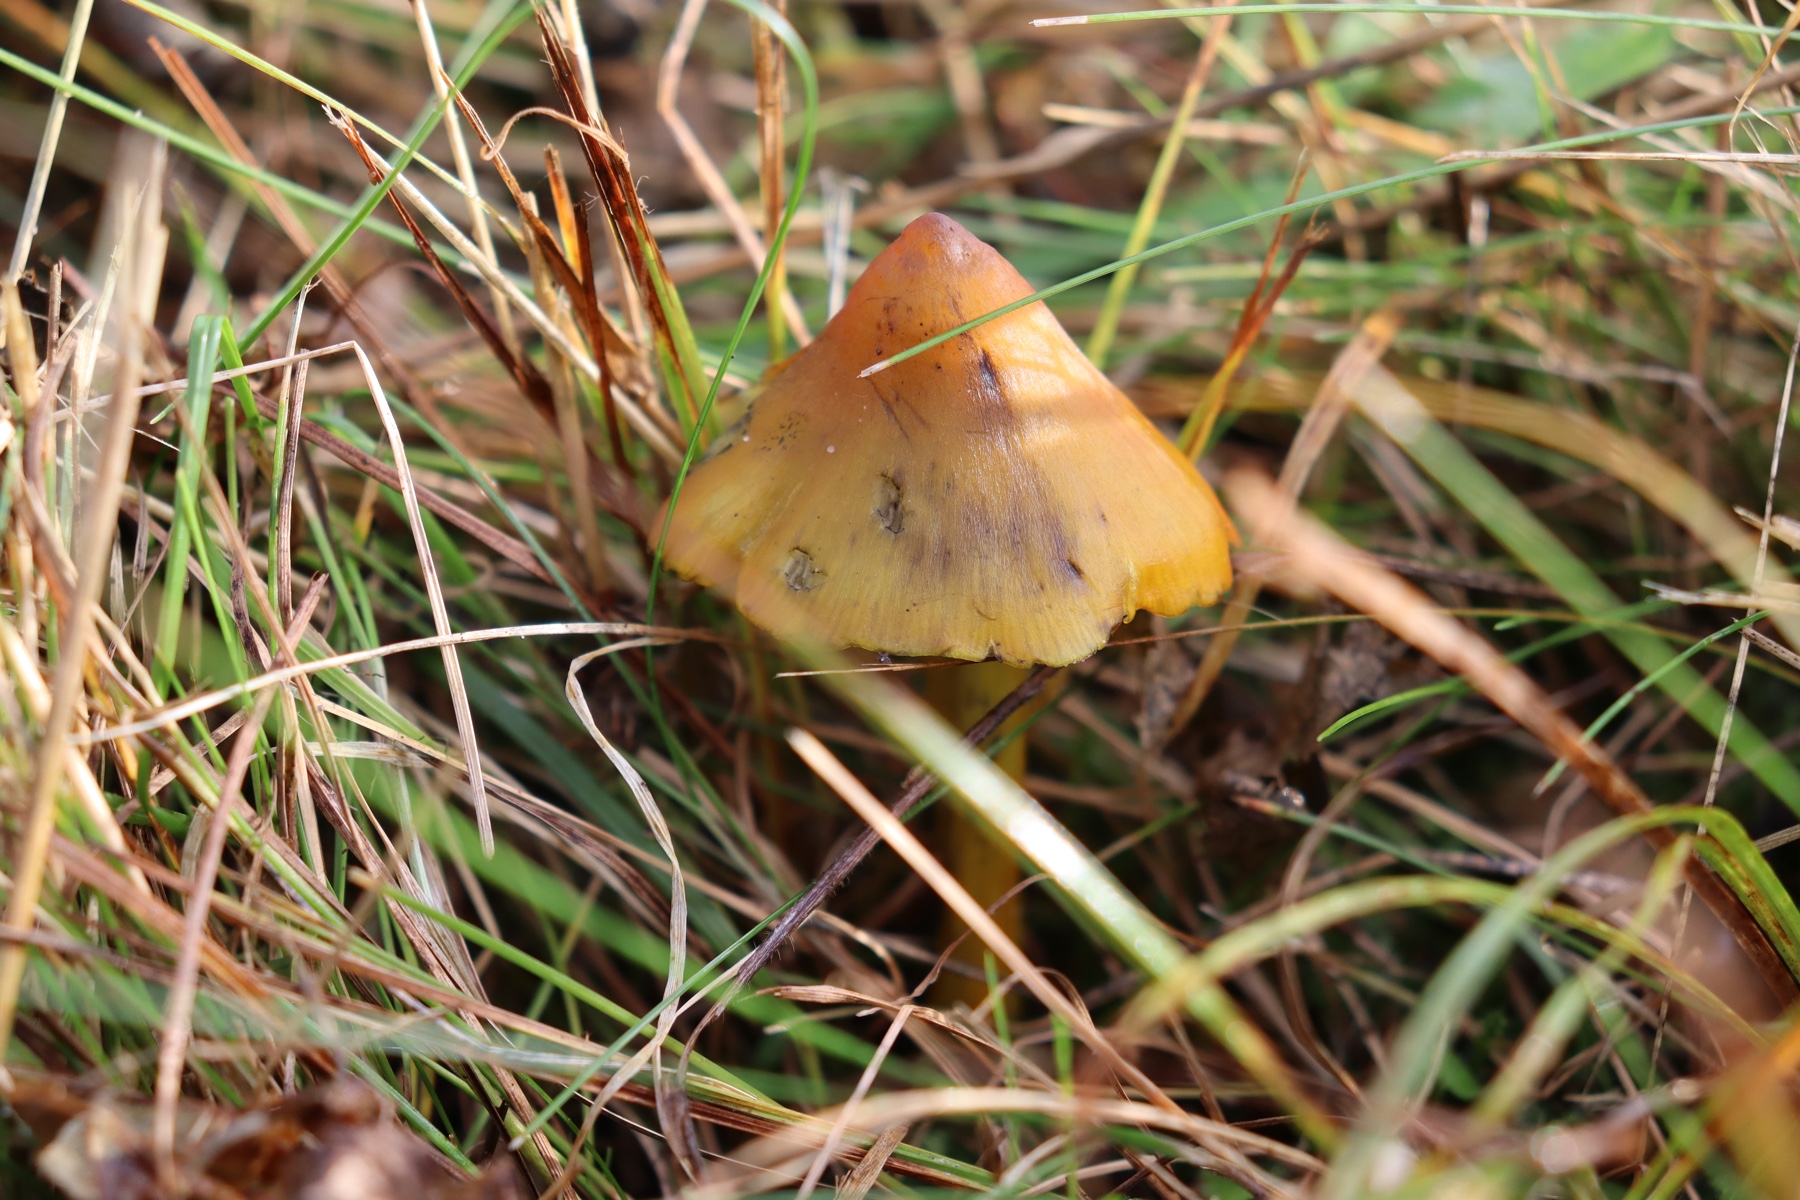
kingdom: Fungi
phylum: Basidiomycota
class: Agaricomycetes
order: Agaricales
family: Hygrophoraceae
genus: Hygrocybe
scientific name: Hygrocybe conica
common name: kegle-vokshat
